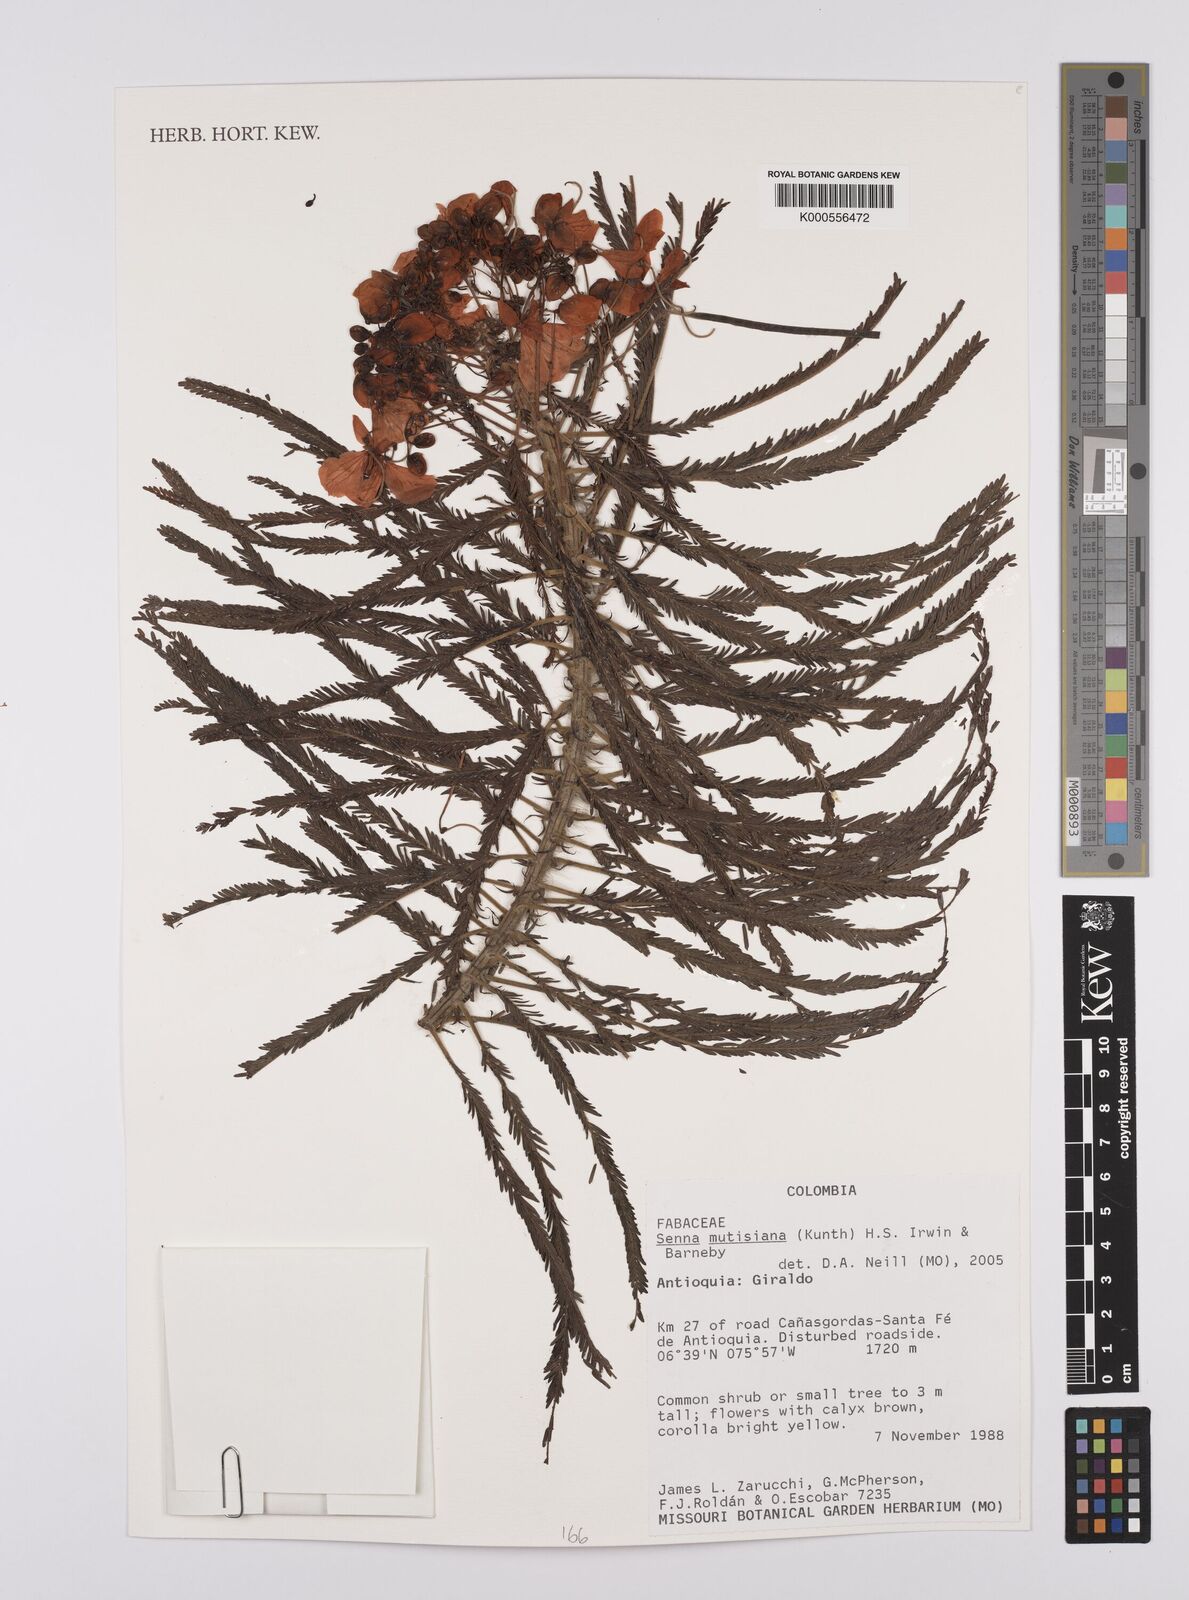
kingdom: Plantae
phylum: Tracheophyta
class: Magnoliopsida
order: Fabales
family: Fabaceae
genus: Senna
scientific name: Senna mutisiana
